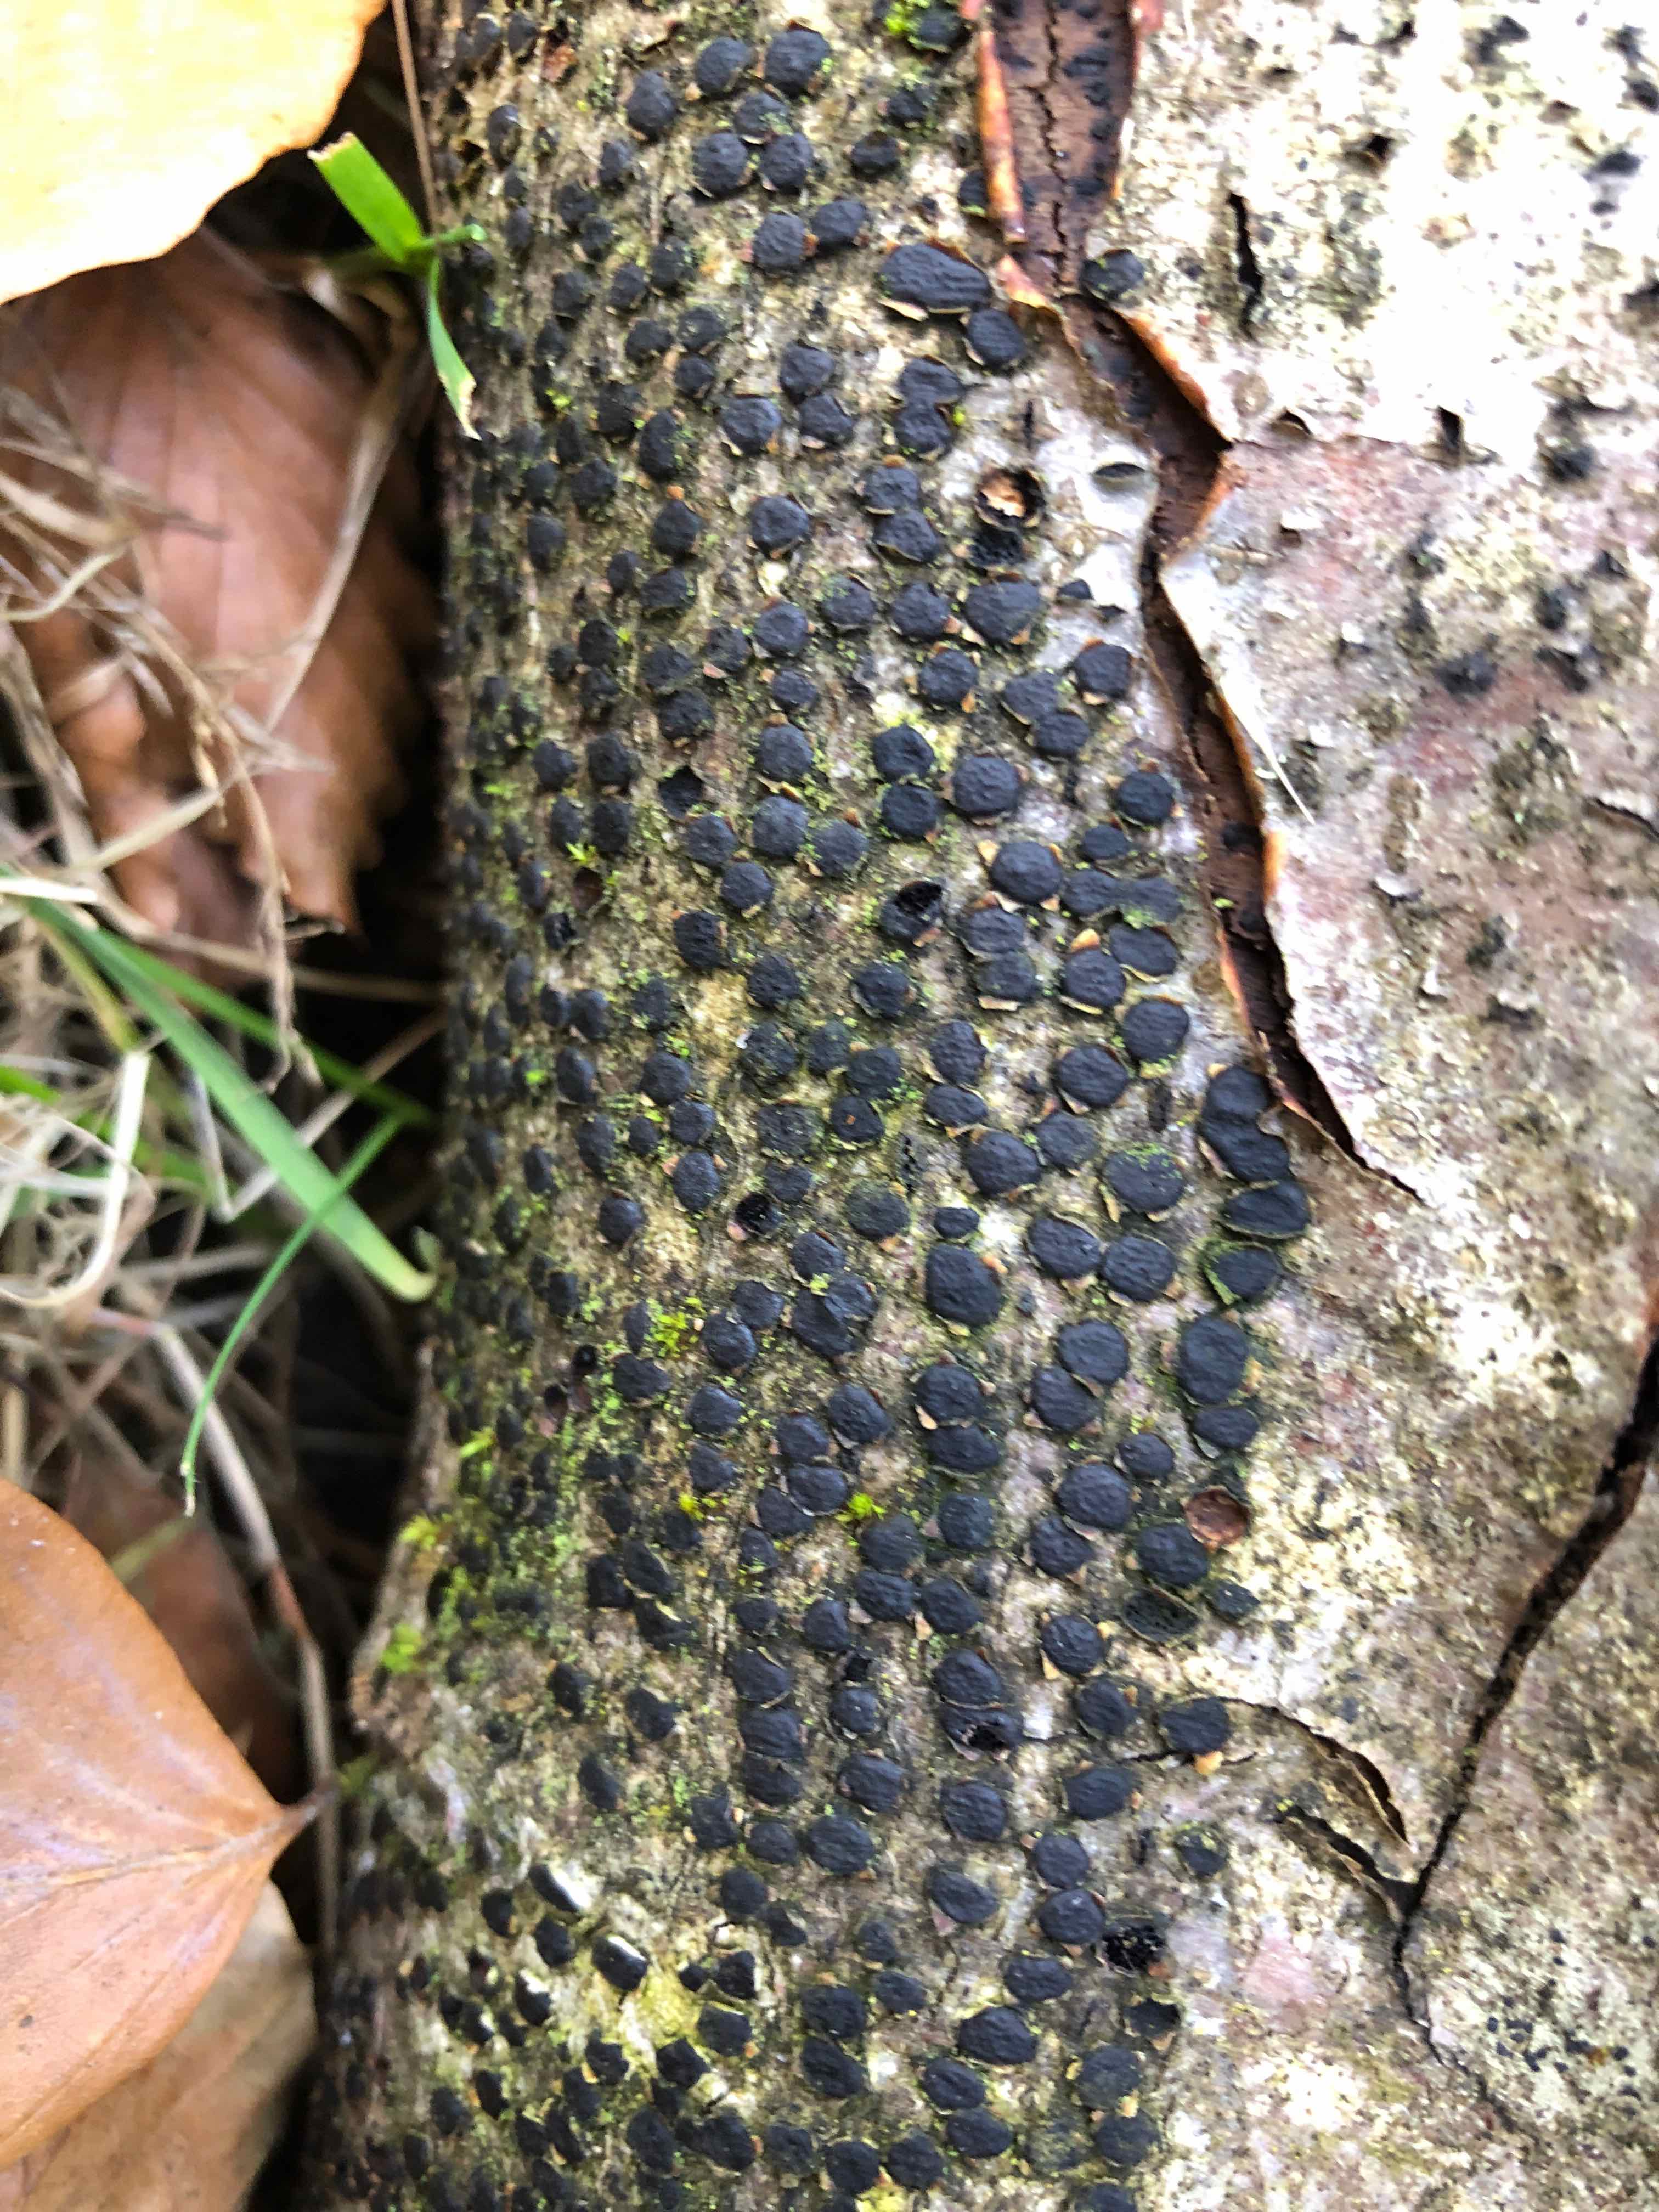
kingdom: Fungi
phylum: Ascomycota
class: Sordariomycetes
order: Xylariales
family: Diatrypaceae
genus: Diatrype
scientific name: Diatrype disciformis
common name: kant-kulskorpe
